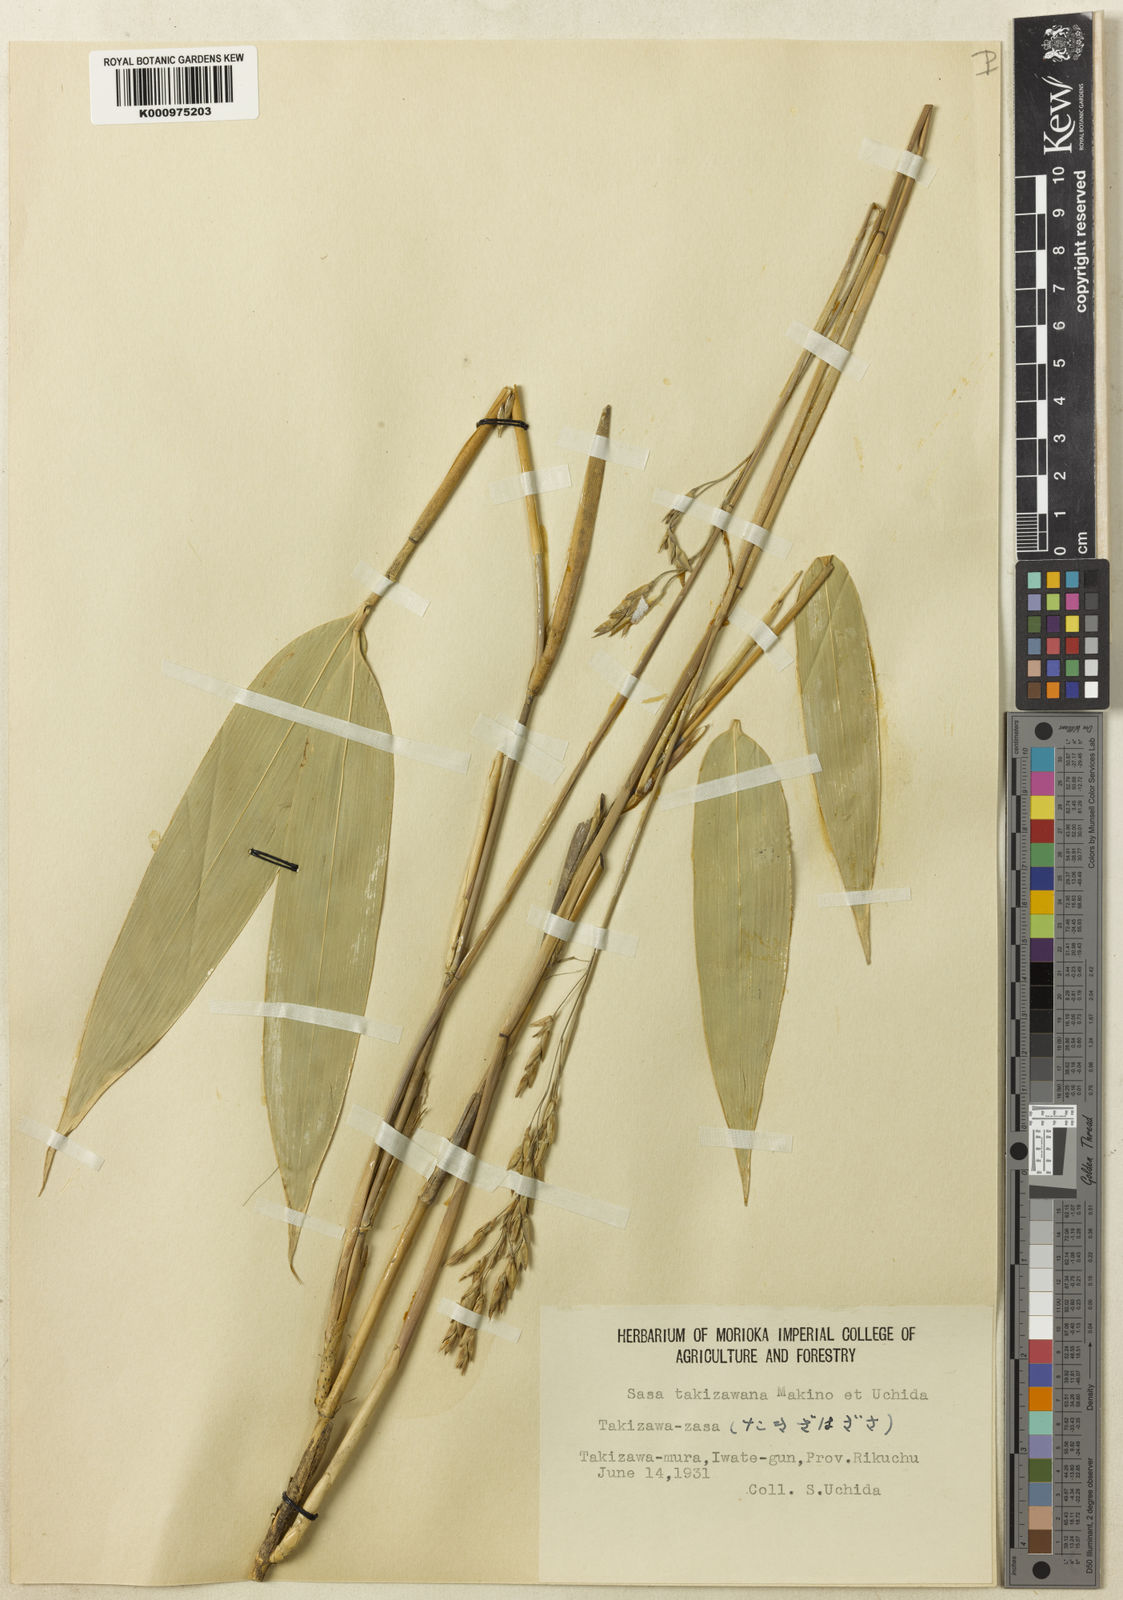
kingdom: Plantae
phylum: Tracheophyta
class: Liliopsida
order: Poales
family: Poaceae
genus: Sasa
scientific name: Sasa takizawana
